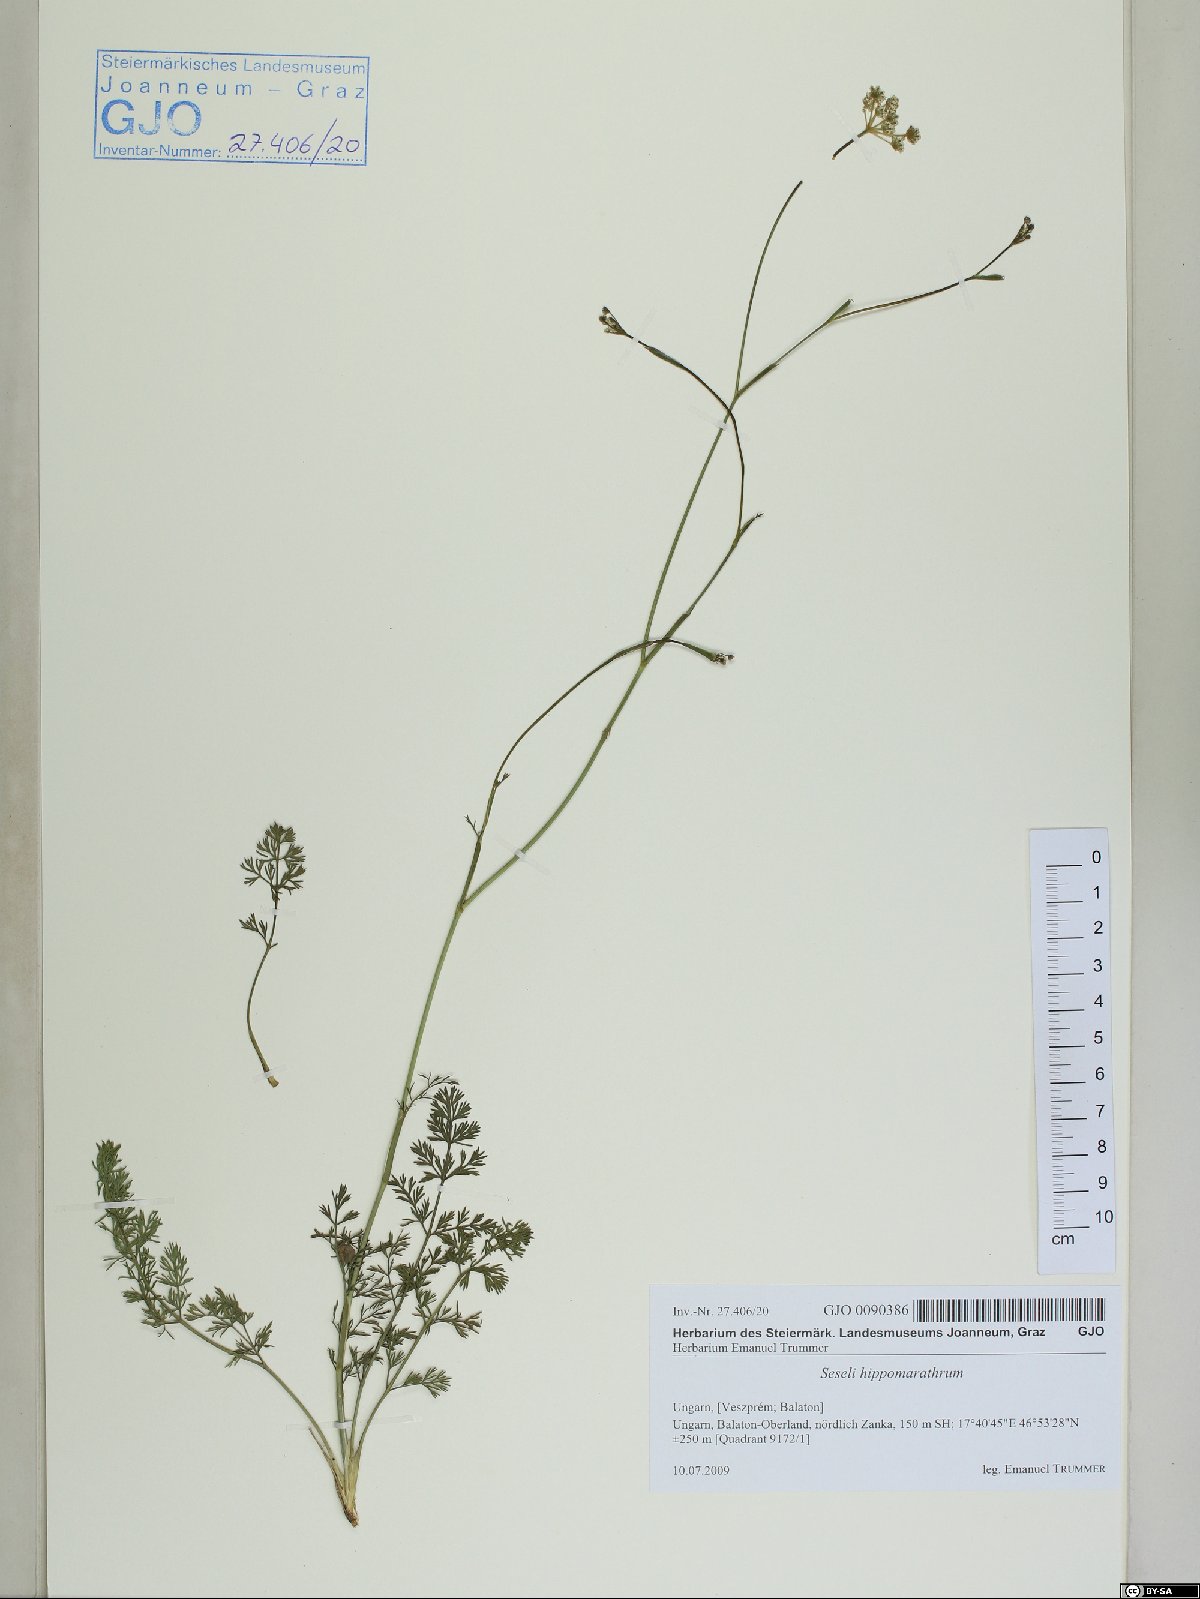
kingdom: Plantae
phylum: Tracheophyta
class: Magnoliopsida
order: Apiales
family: Apiaceae
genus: Hippomarathrum
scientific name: Hippomarathrum vulgare
